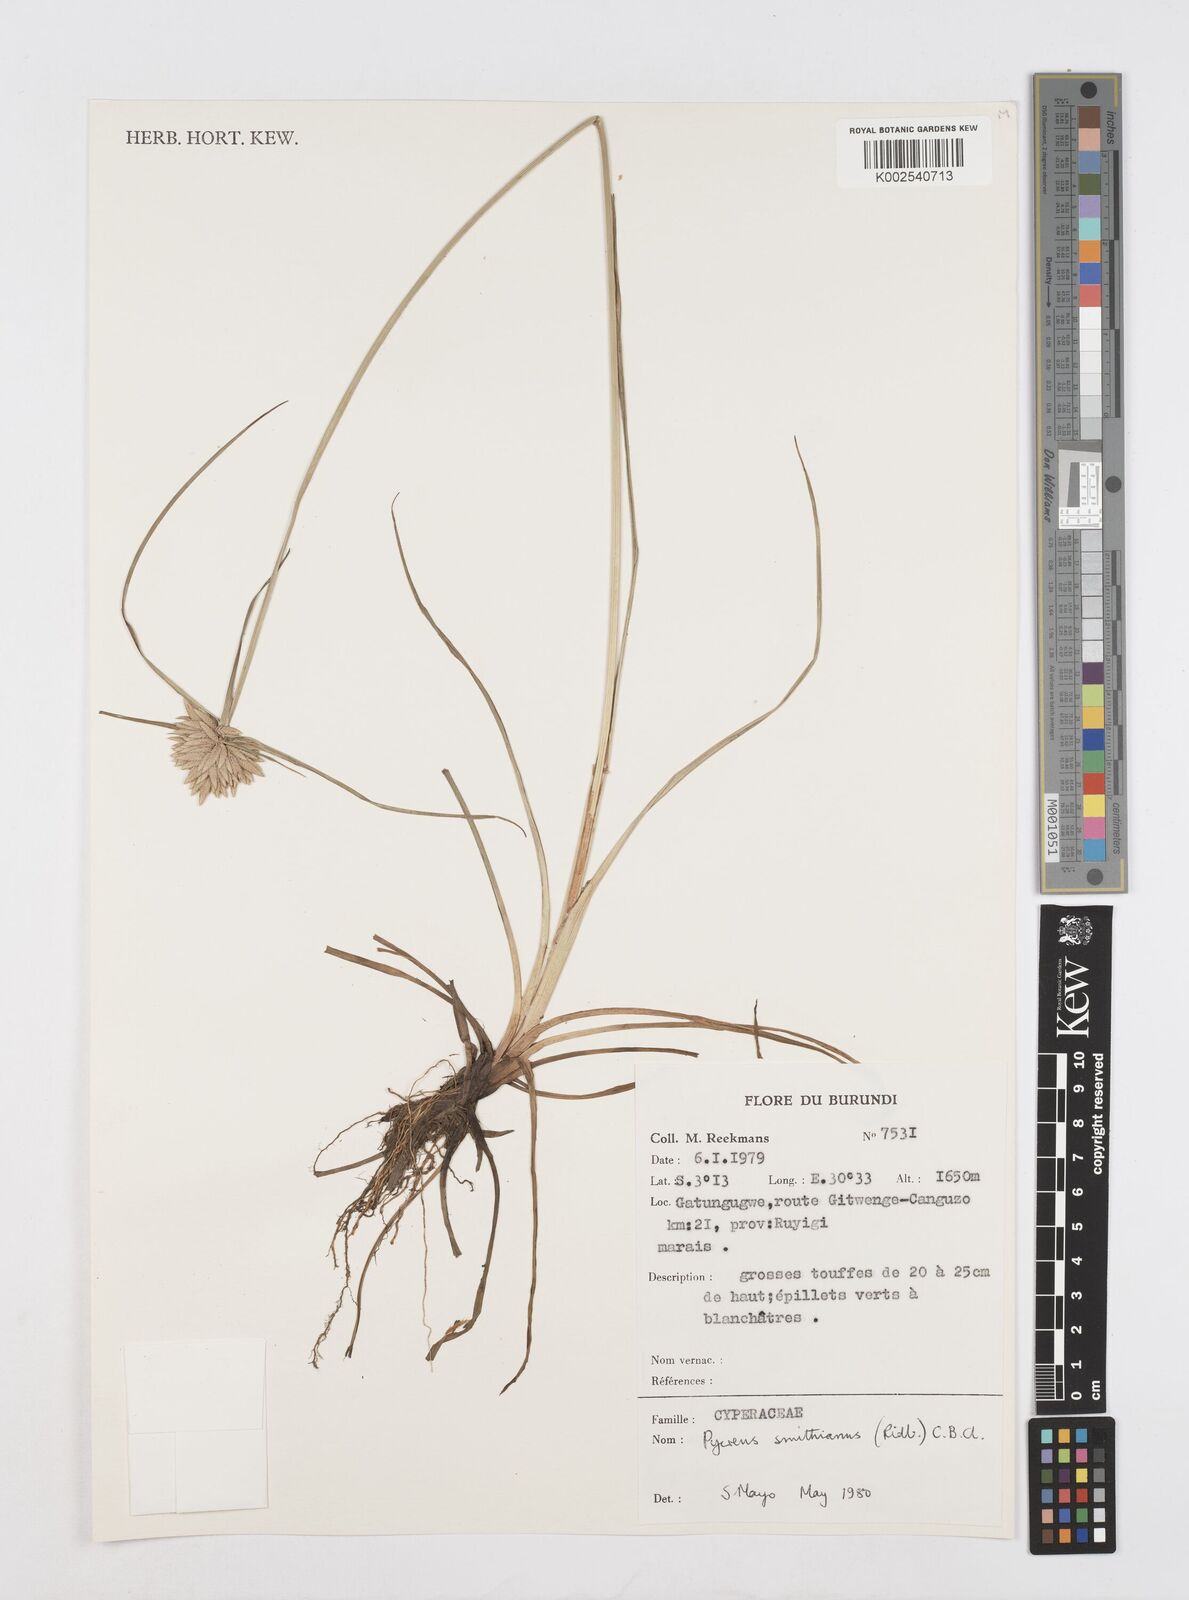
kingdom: Plantae
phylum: Tracheophyta
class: Liliopsida
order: Poales
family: Cyperaceae
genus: Cyperus
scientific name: Cyperus smithianus
